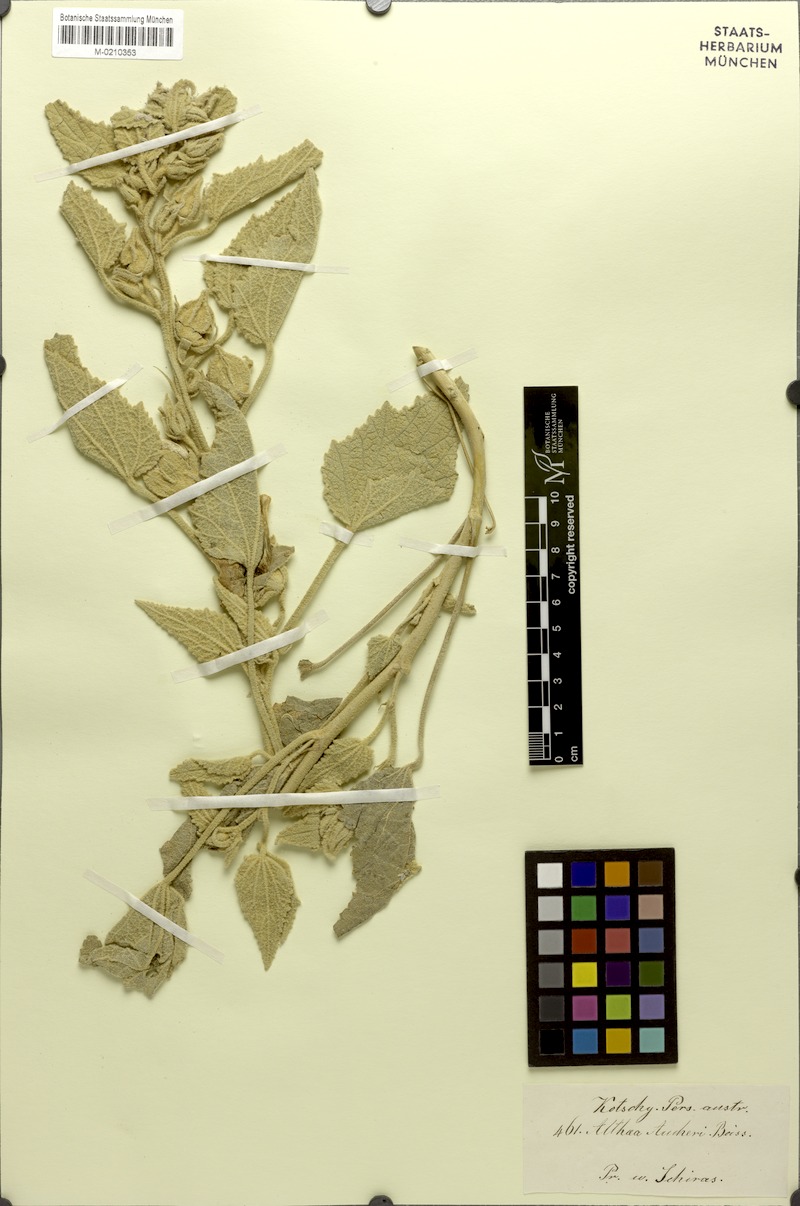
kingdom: Plantae
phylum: Tracheophyta
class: Magnoliopsida
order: Malvales
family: Malvaceae
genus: Alcea
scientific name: Alcea aucheri
